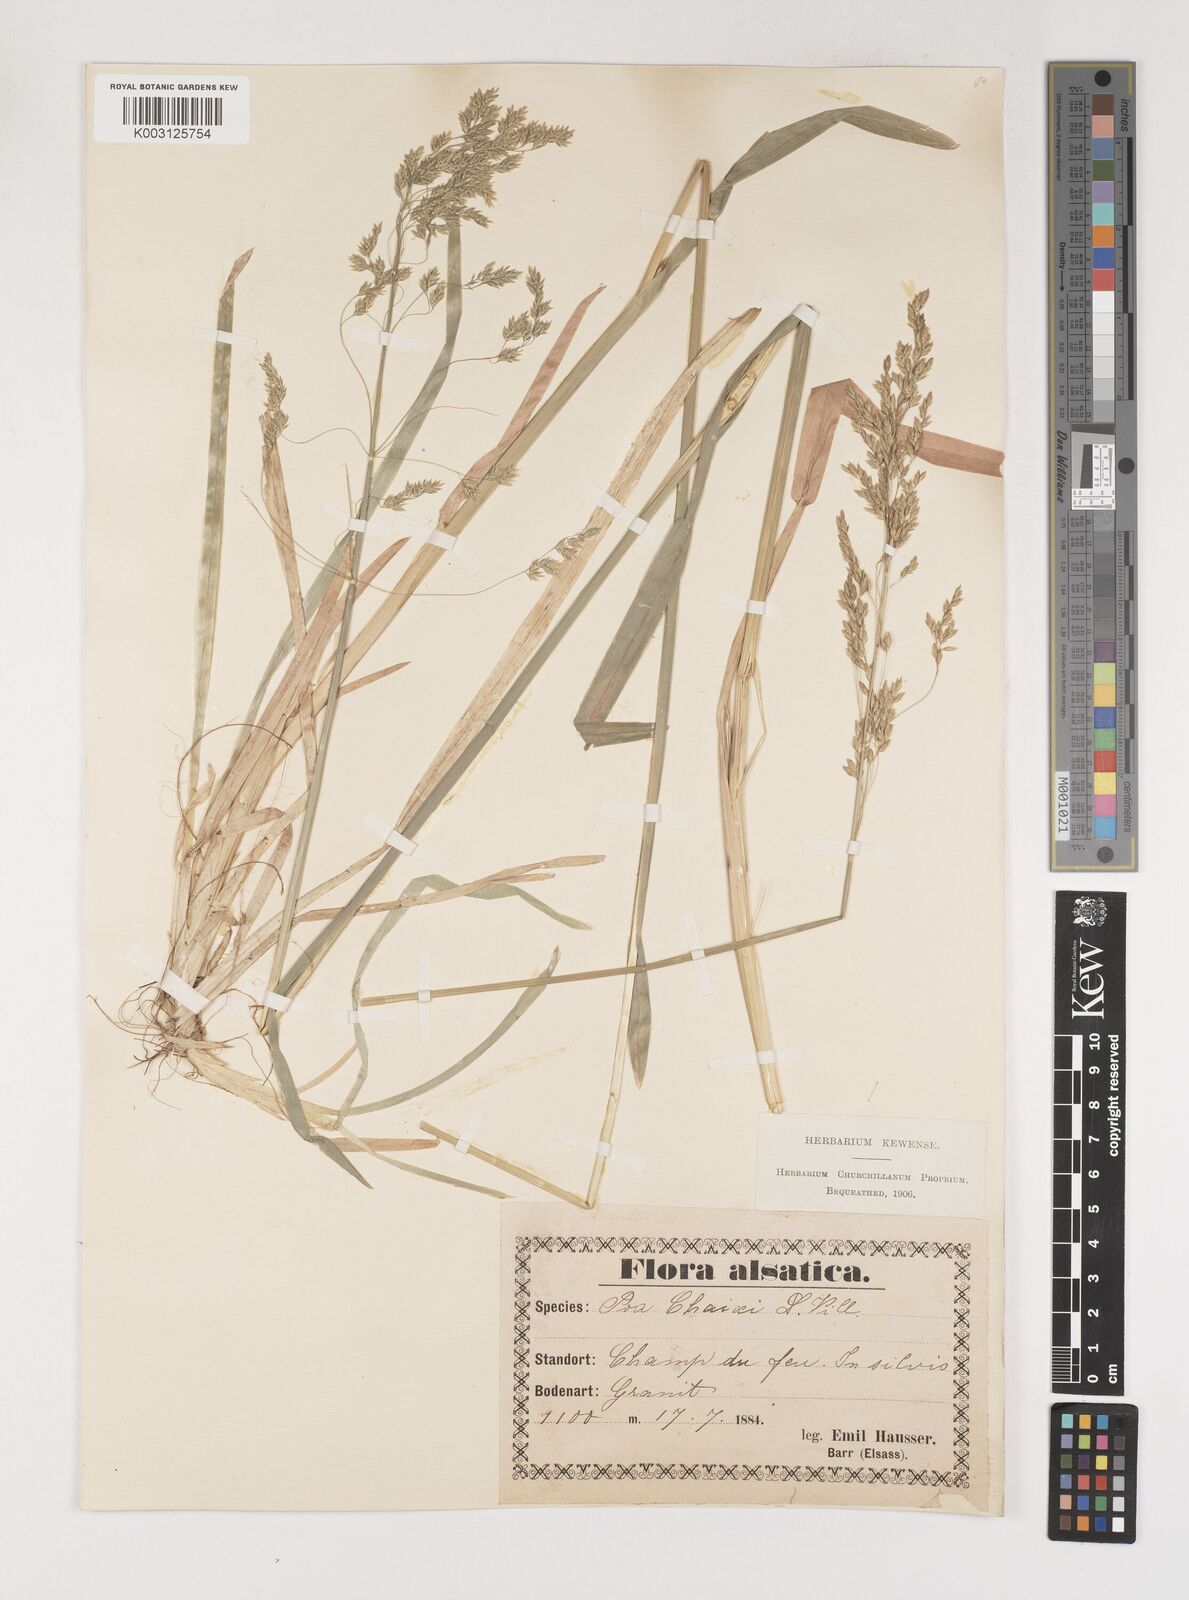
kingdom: Plantae
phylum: Tracheophyta
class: Liliopsida
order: Poales
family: Poaceae
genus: Poa
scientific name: Poa chaixii
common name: Broad-leaved meadow-grass
